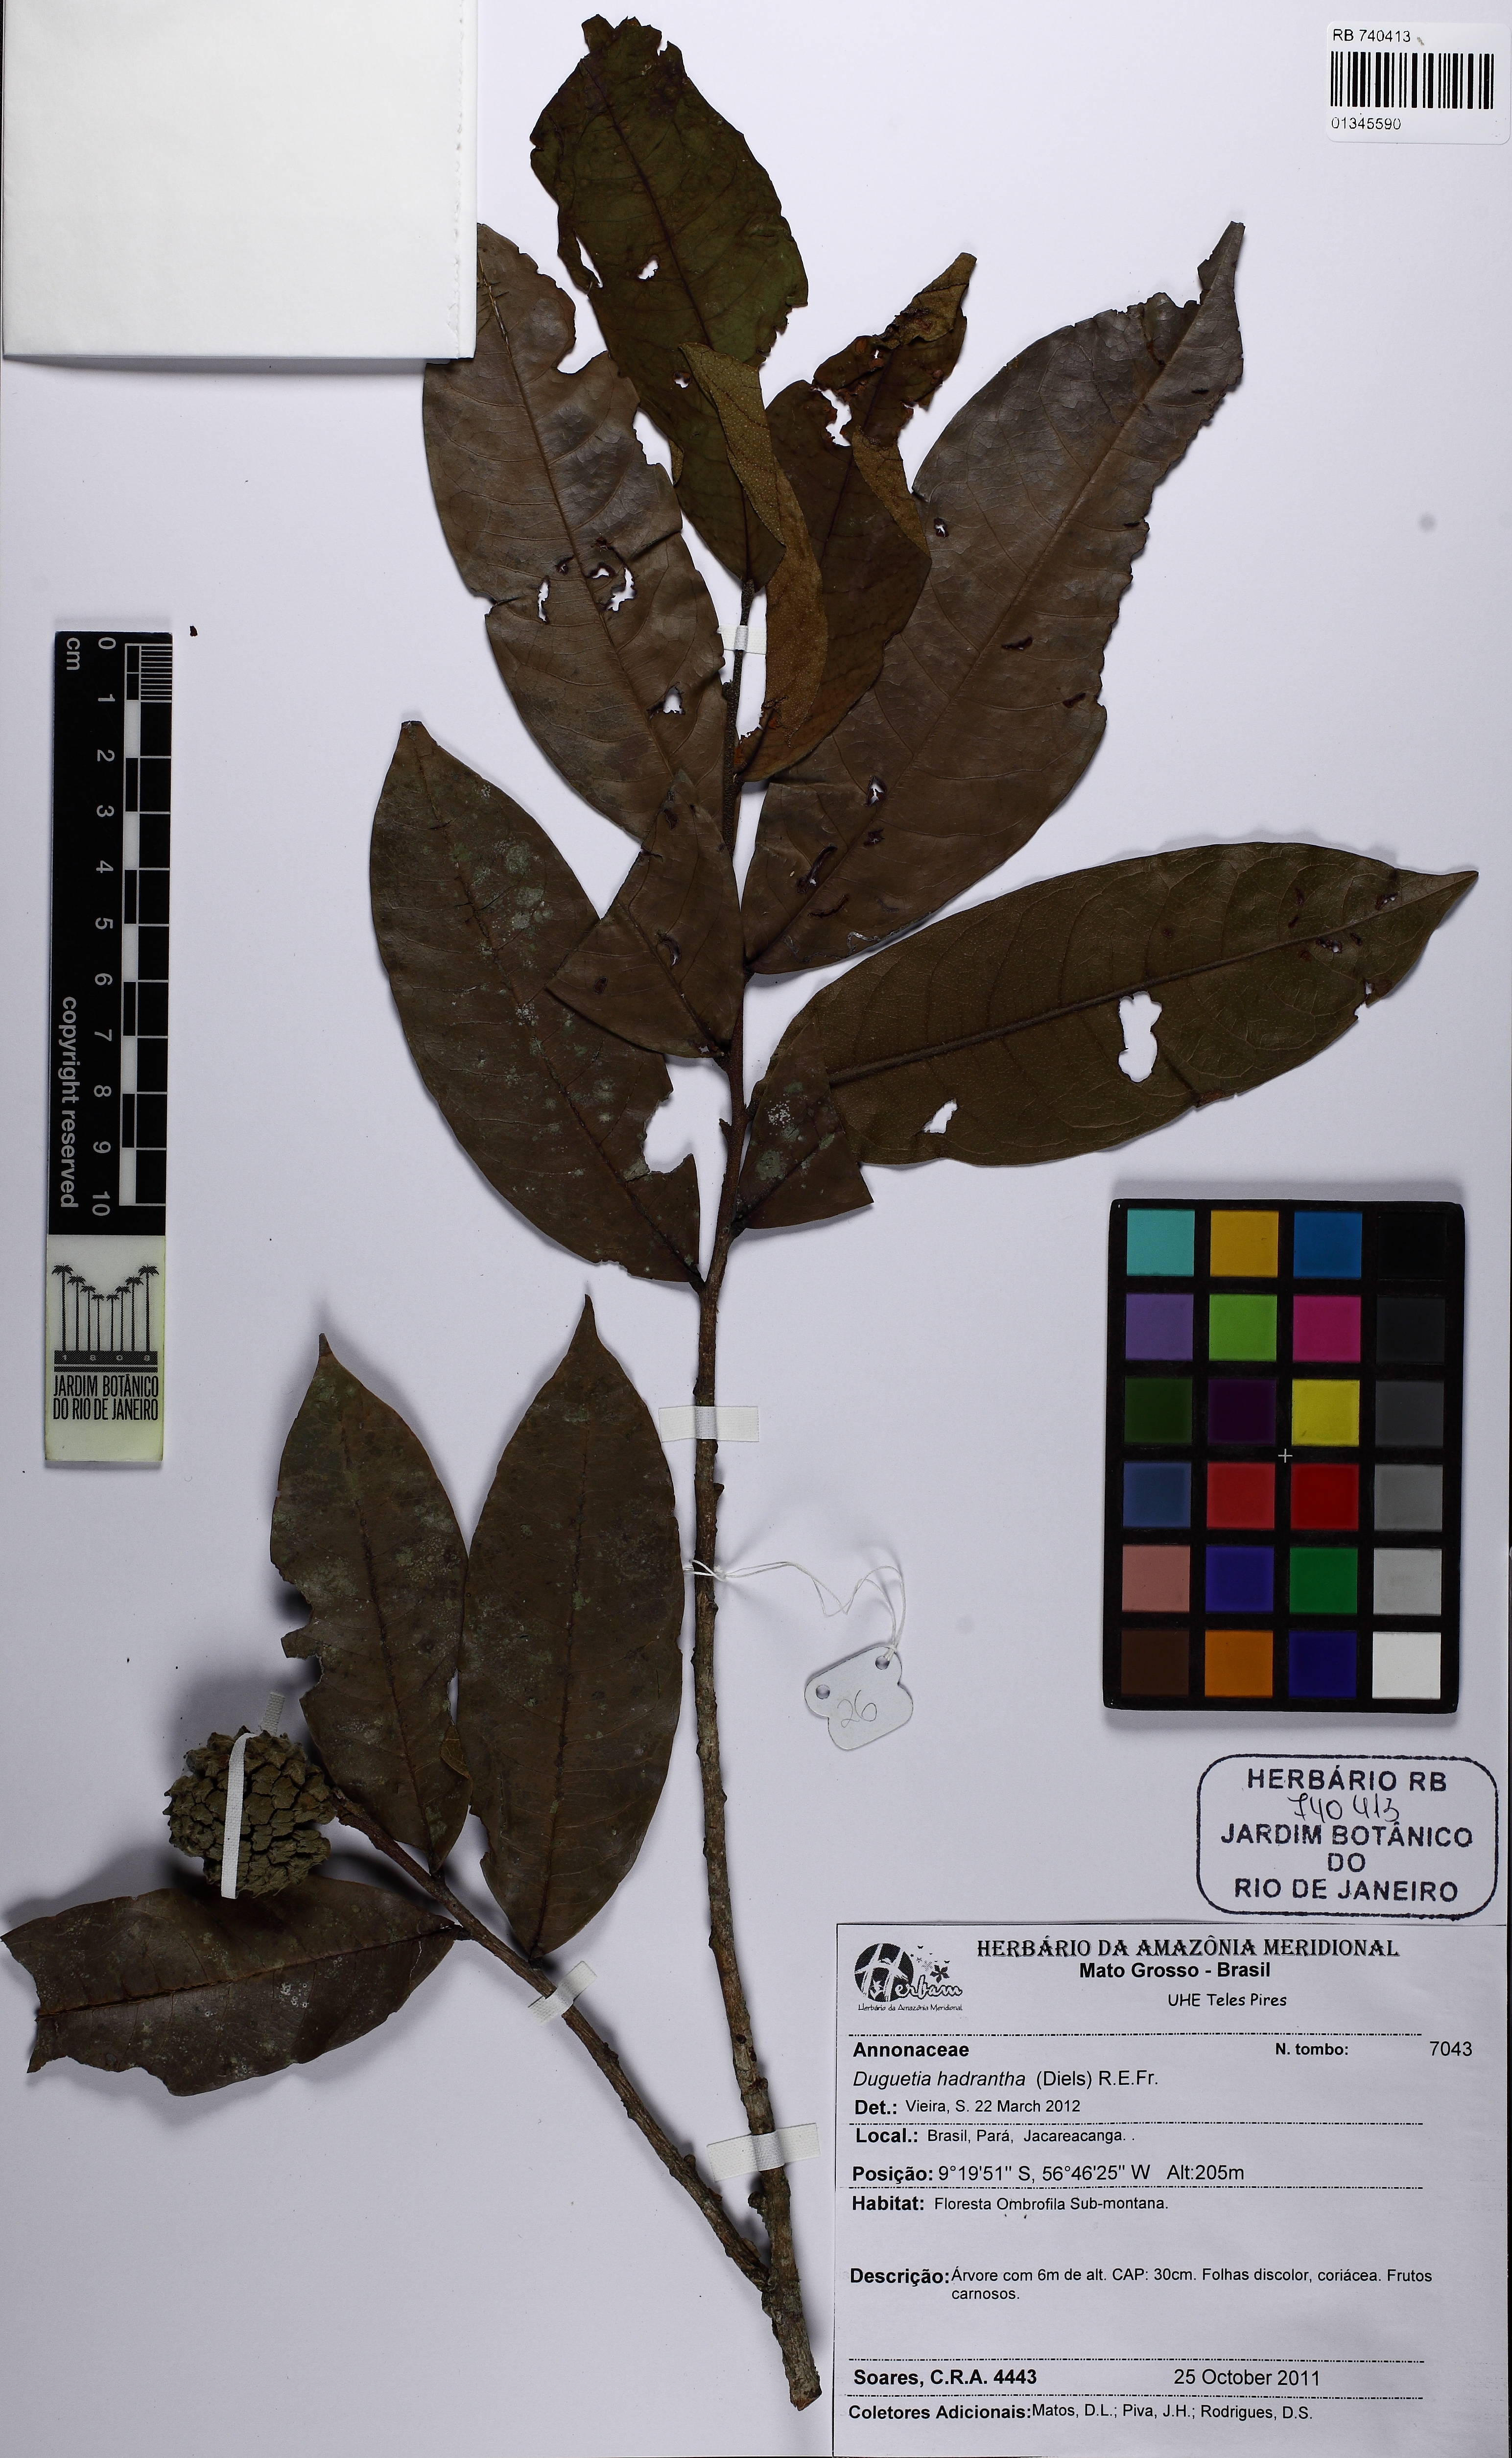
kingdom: Plantae
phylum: Tracheophyta
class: Magnoliopsida
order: Magnoliales
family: Annonaceae
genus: Duguetia
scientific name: Duguetia hadrantha
